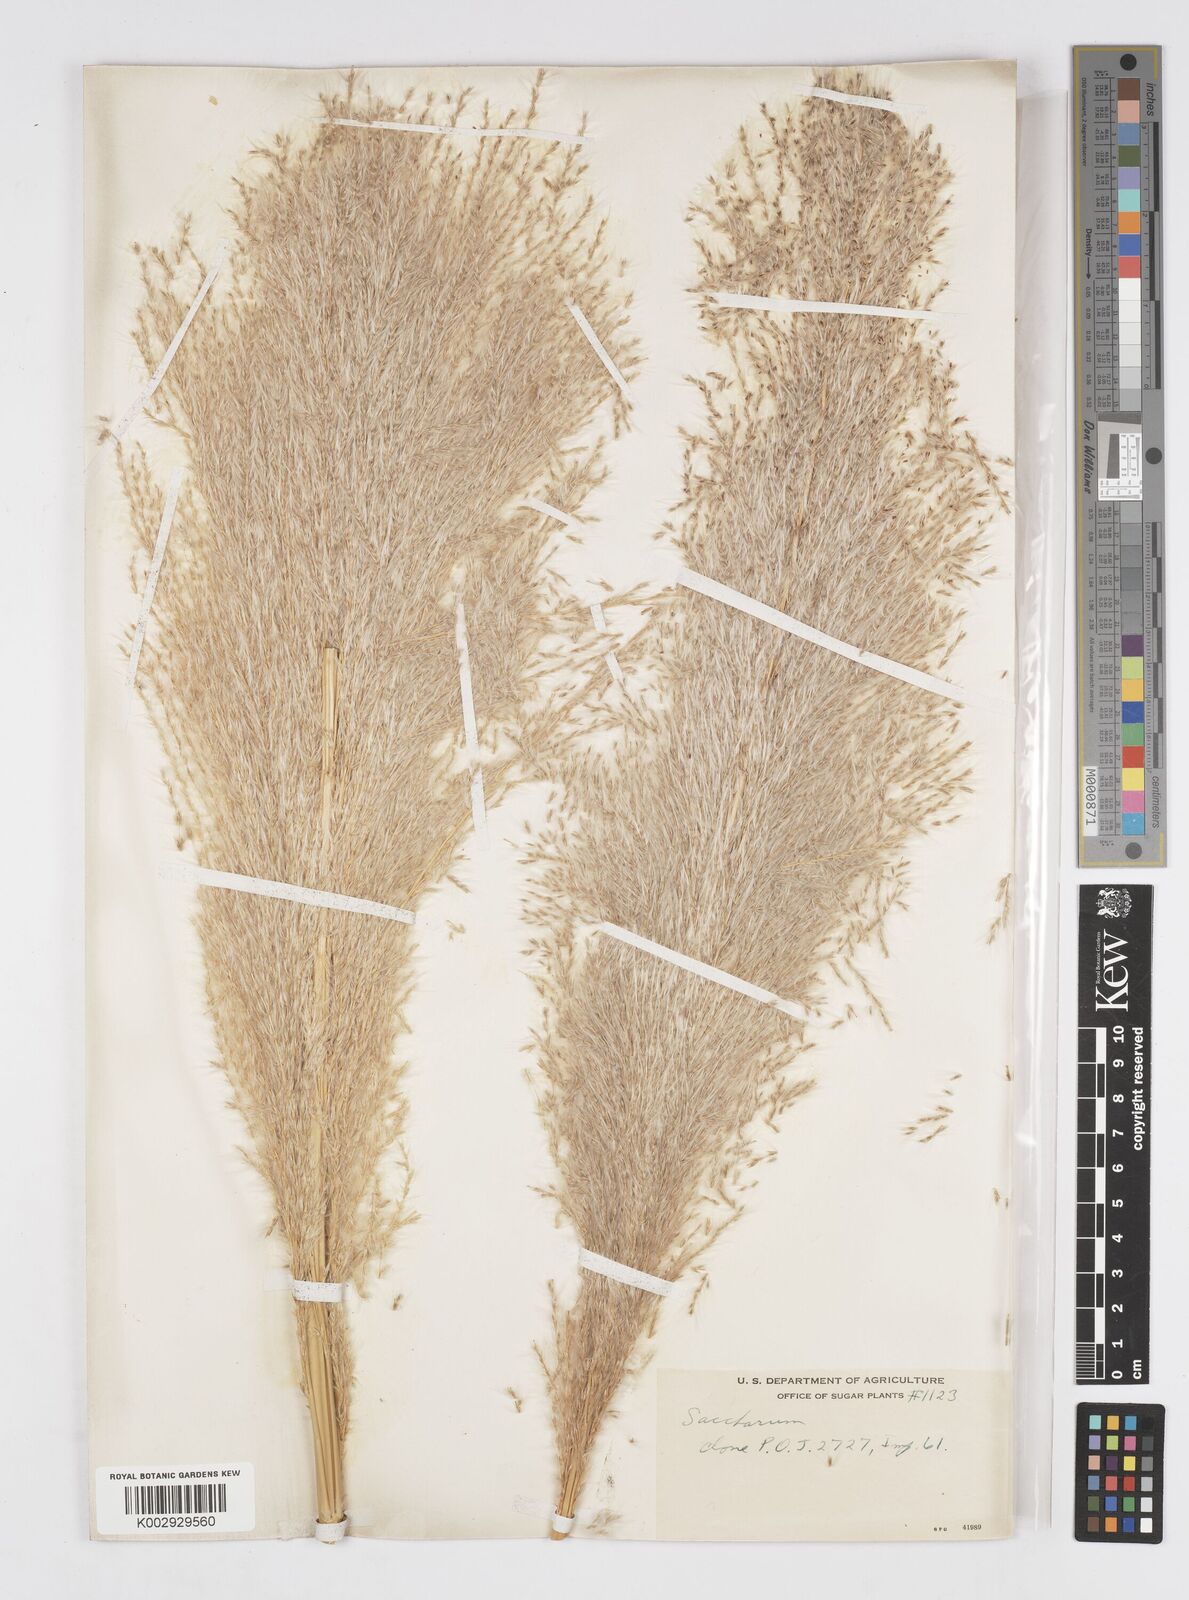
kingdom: Plantae
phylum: Tracheophyta
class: Liliopsida
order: Poales
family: Poaceae
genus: Saccharum
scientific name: Saccharum officinarum
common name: Sugarcane
